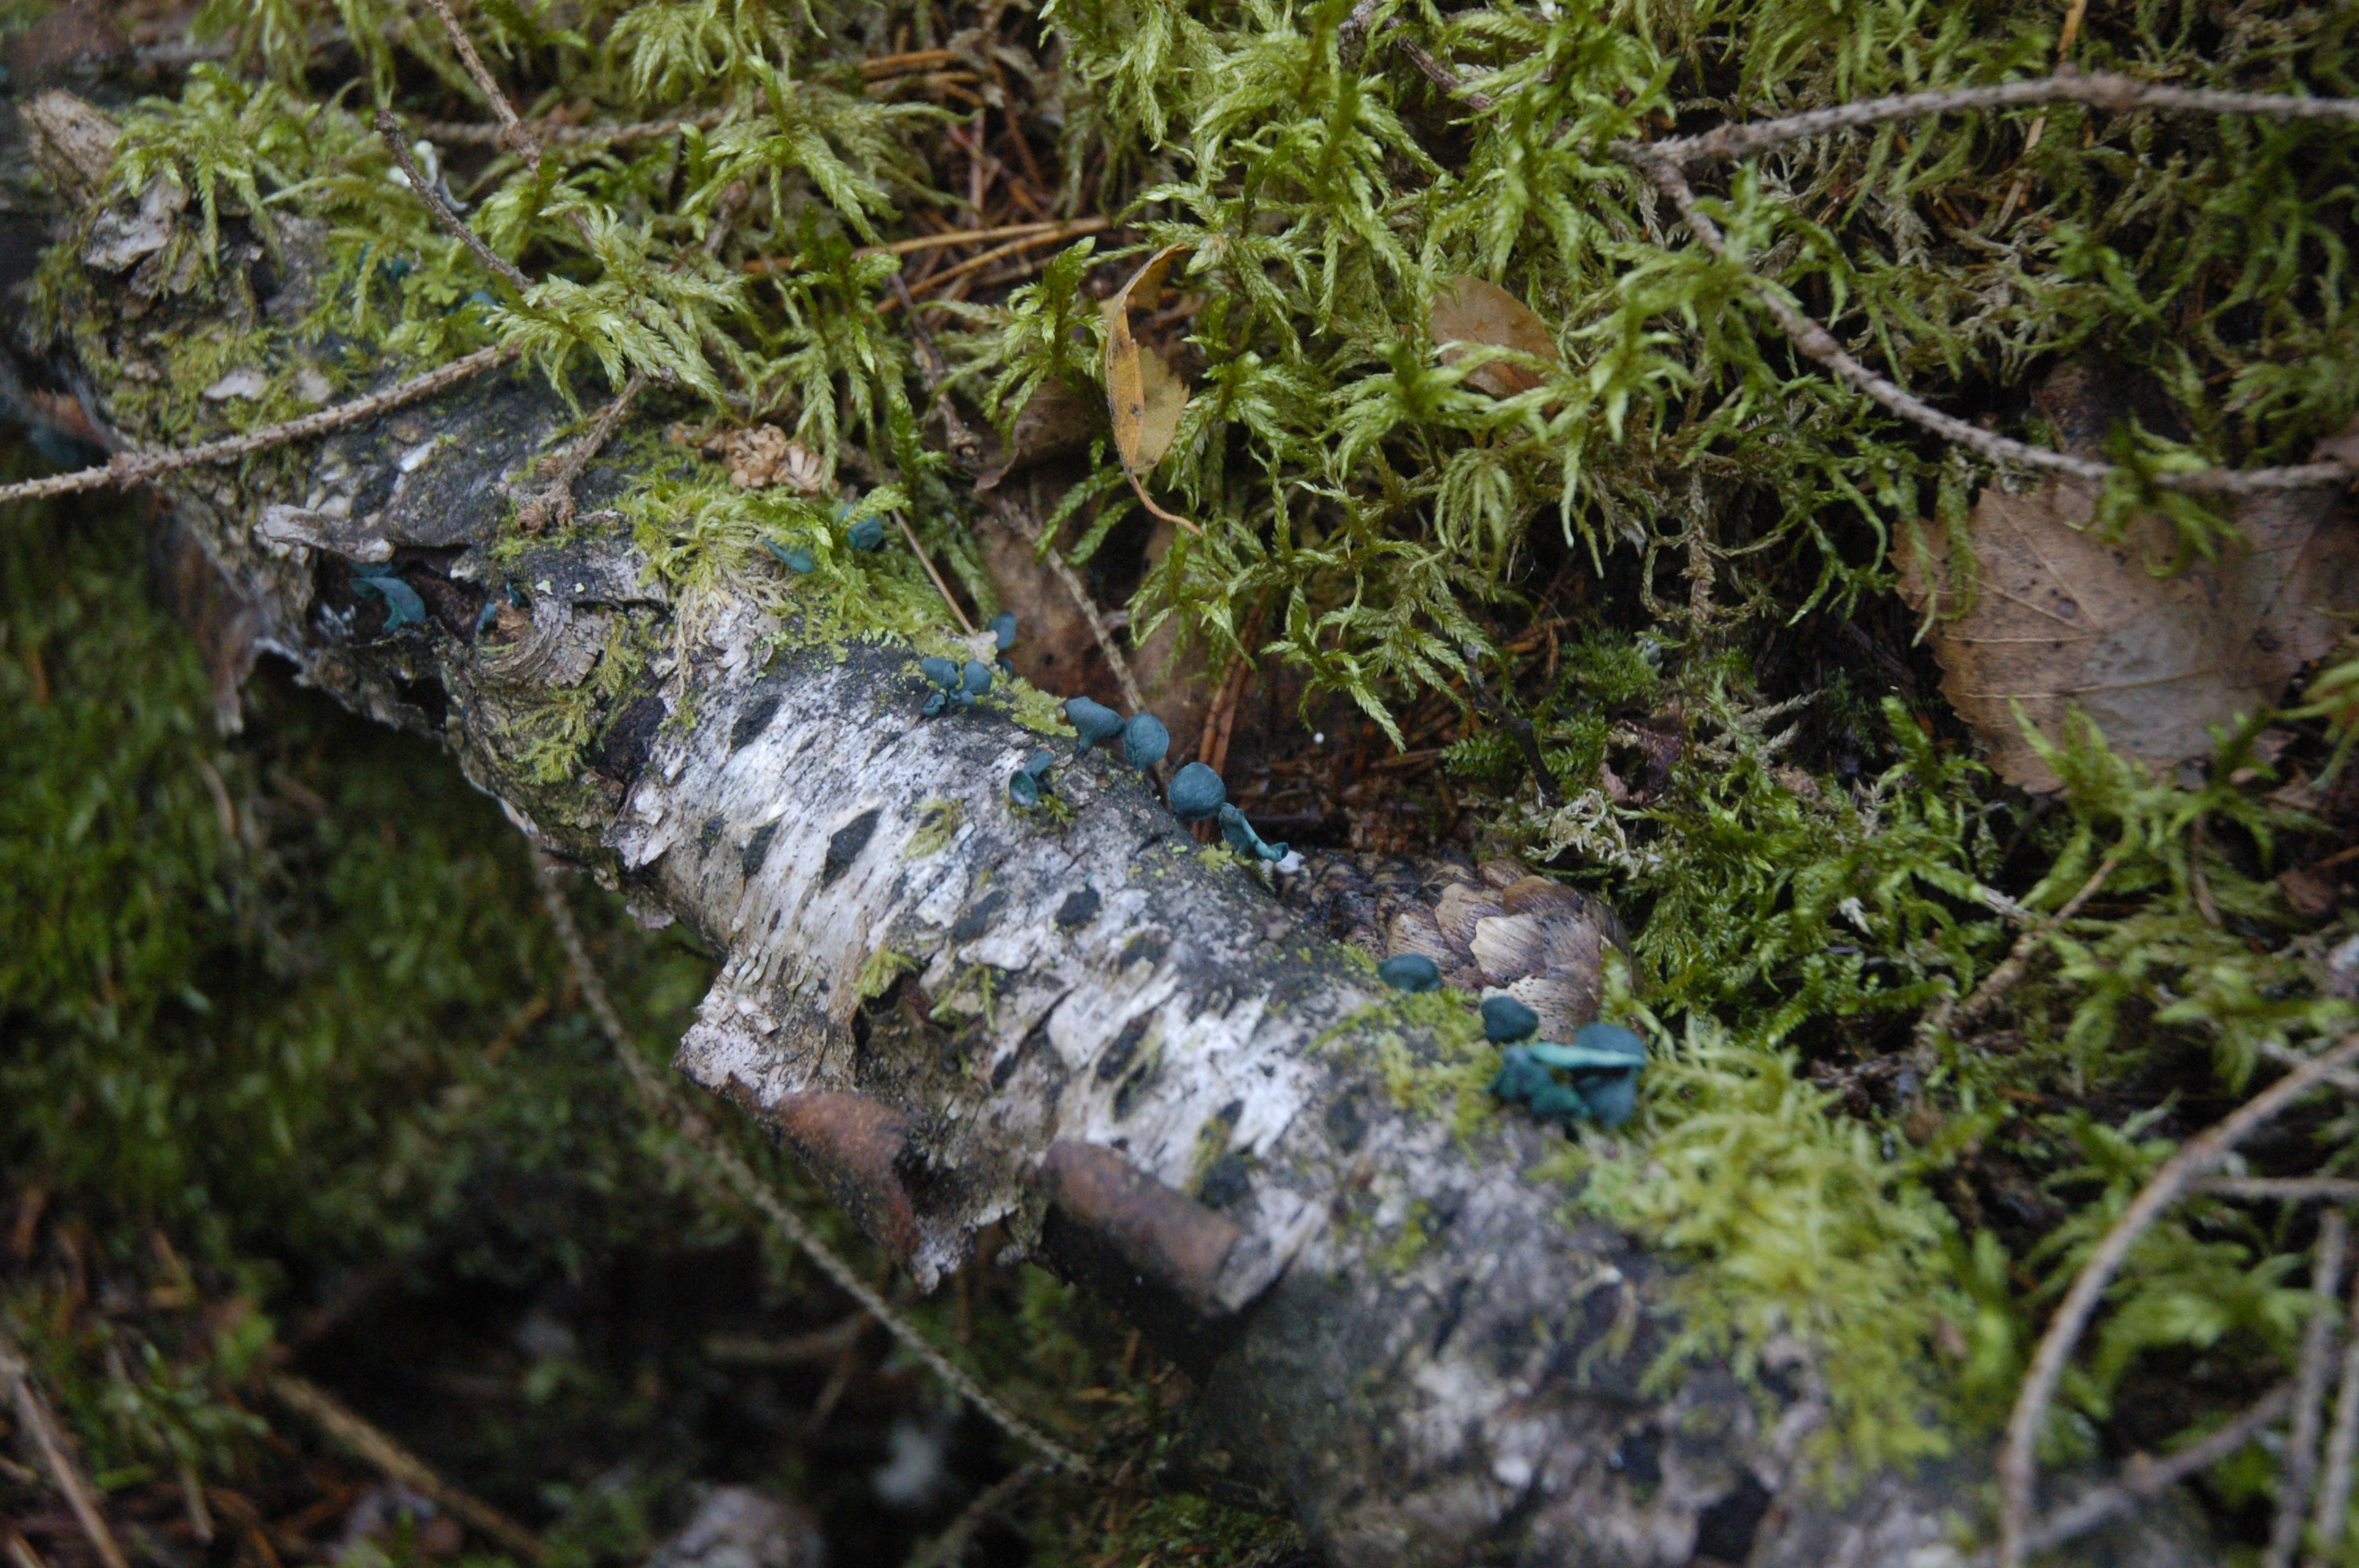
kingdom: Fungi
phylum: Ascomycota
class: Leotiomycetes
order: Helotiales
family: Chlorociboriaceae
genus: Chlorociboria
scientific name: Chlorociboria aeruginascens
